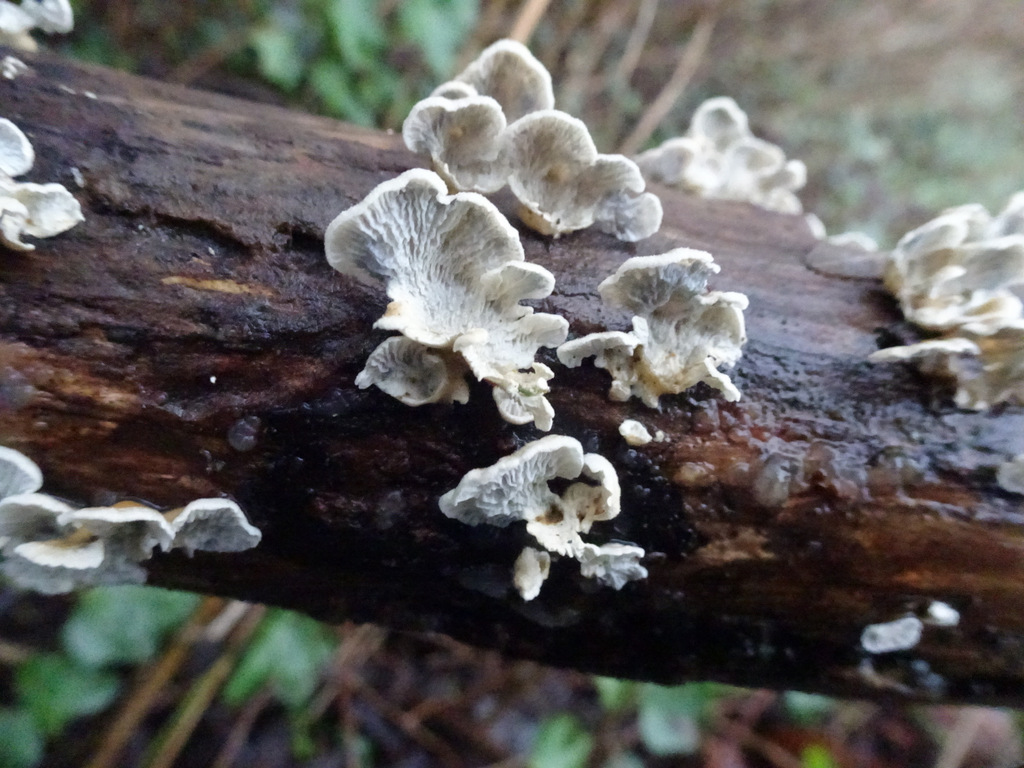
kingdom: Fungi
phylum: Basidiomycota
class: Agaricomycetes
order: Amylocorticiales
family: Amylocorticiaceae
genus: Plicaturopsis
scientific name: Plicaturopsis crispa
